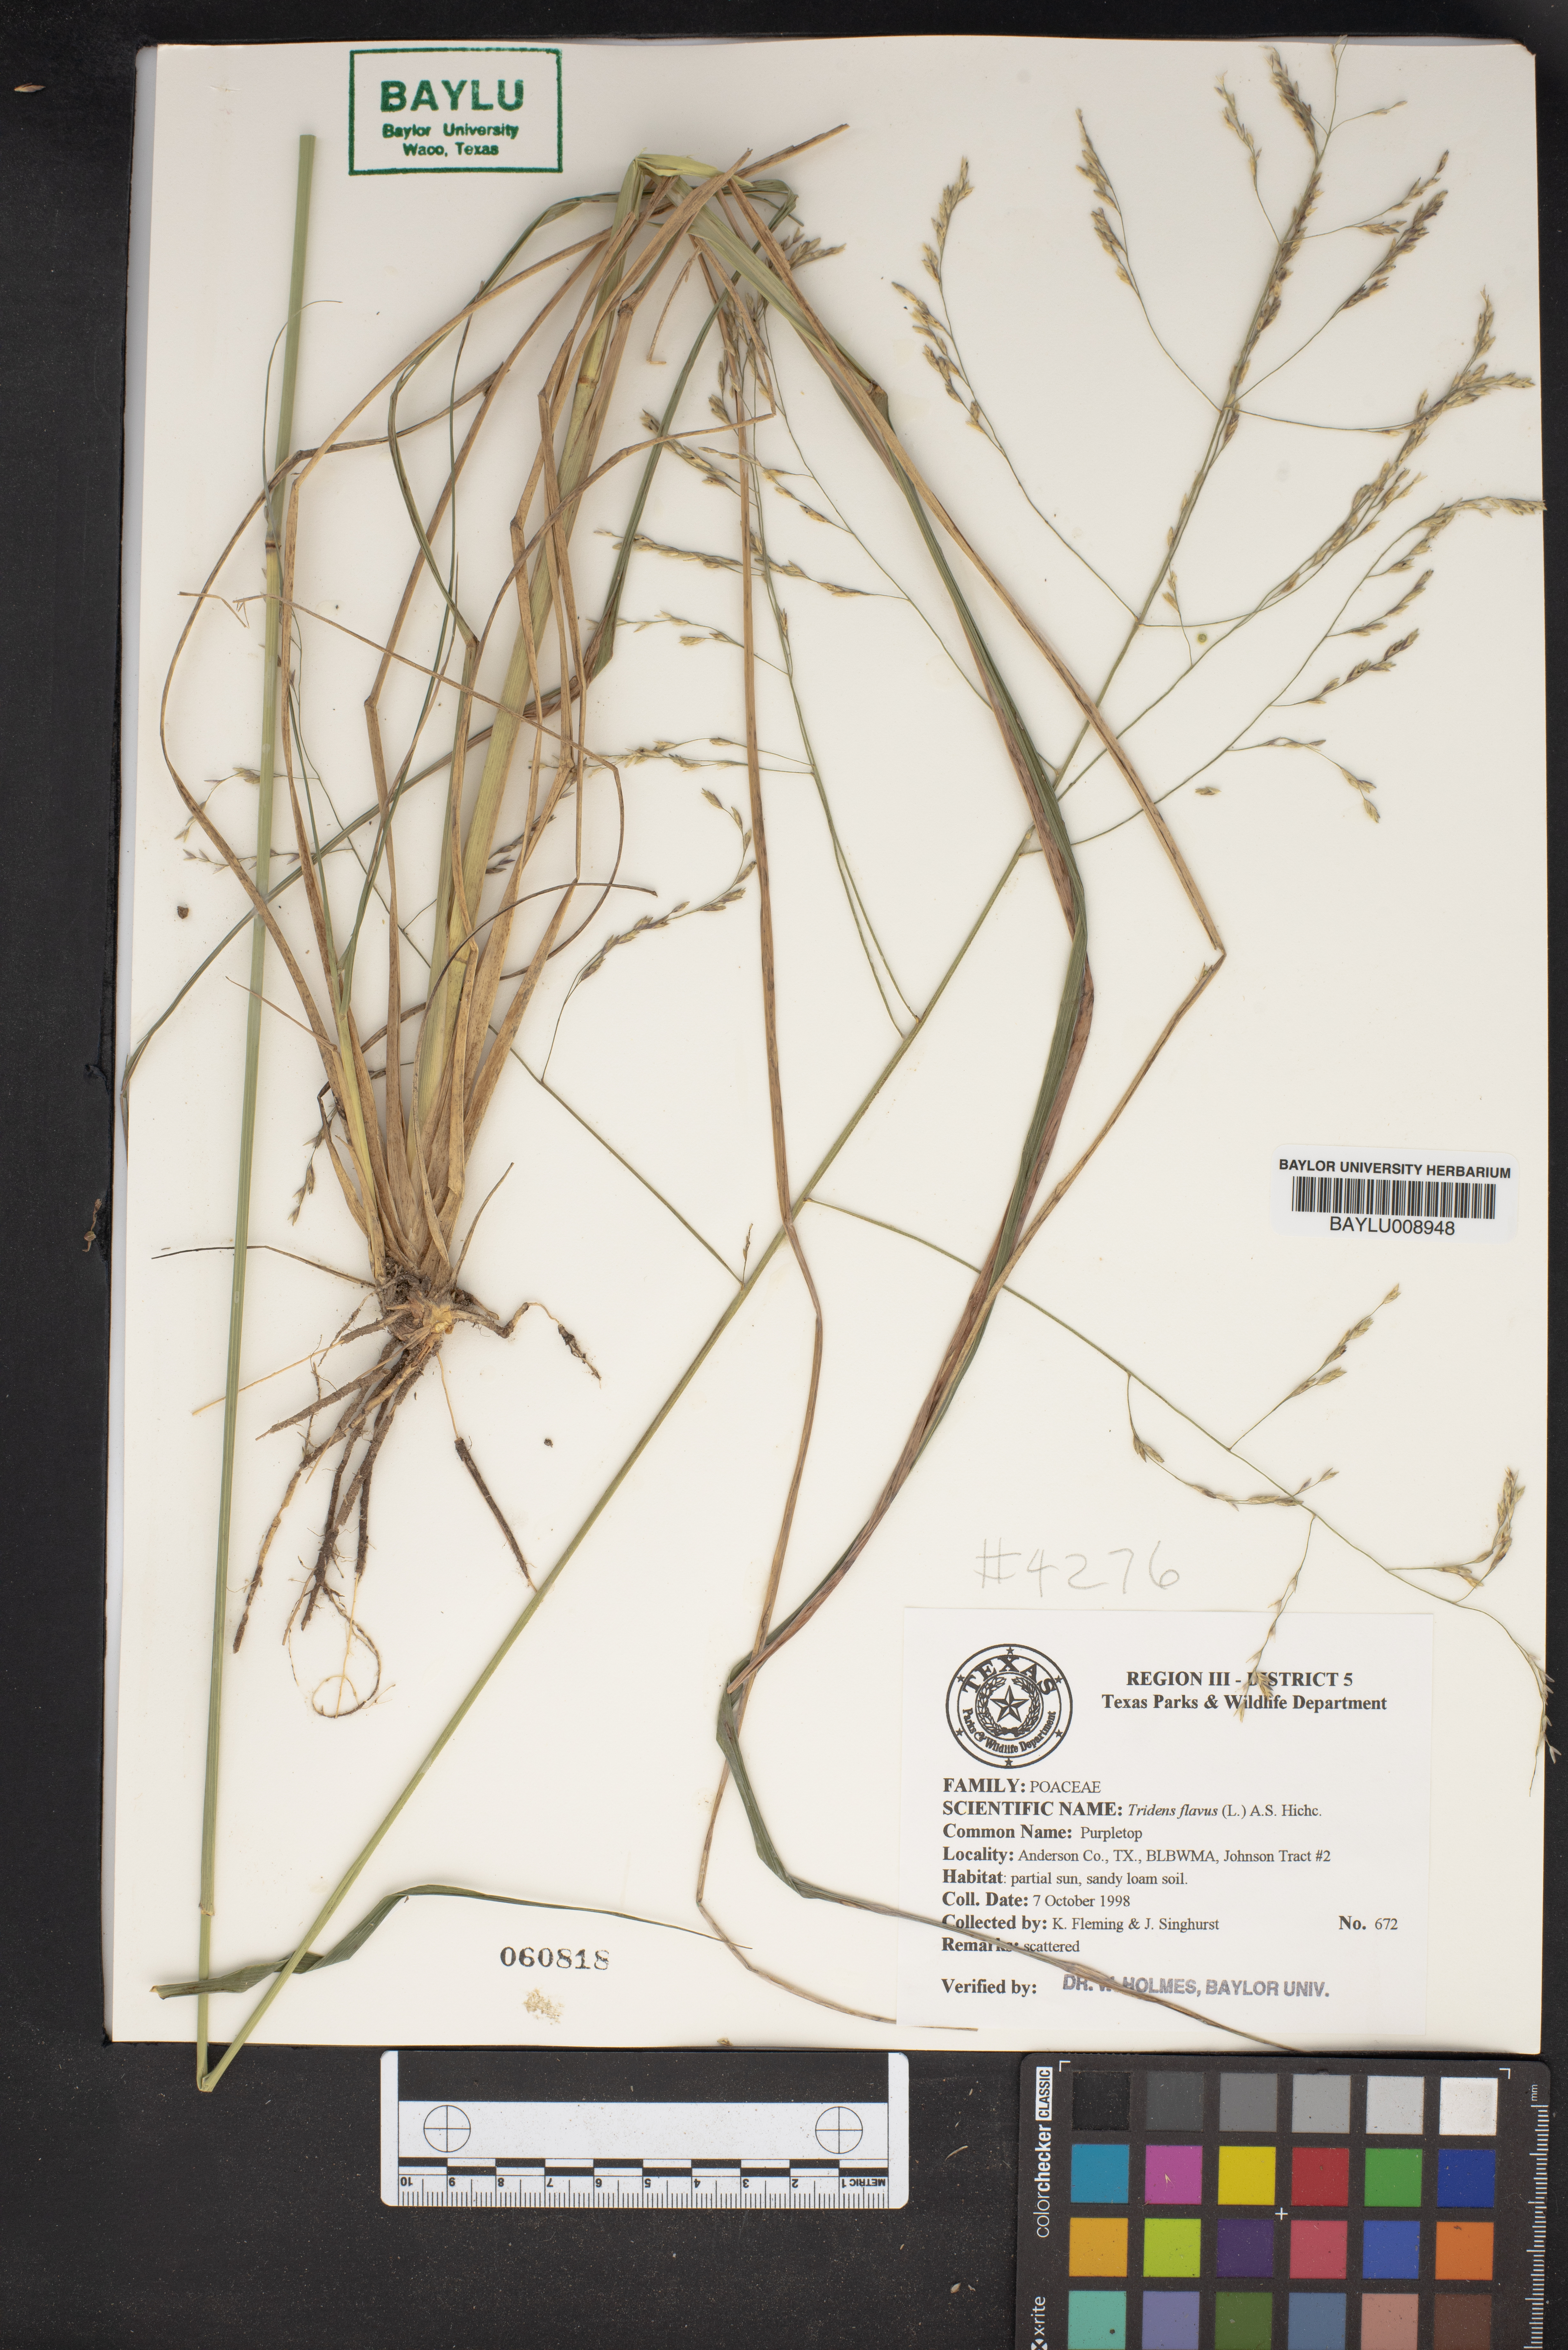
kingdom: Plantae
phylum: Tracheophyta
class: Liliopsida
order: Poales
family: Poaceae
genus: Tridens
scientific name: Tridens flavus
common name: Purpletop
